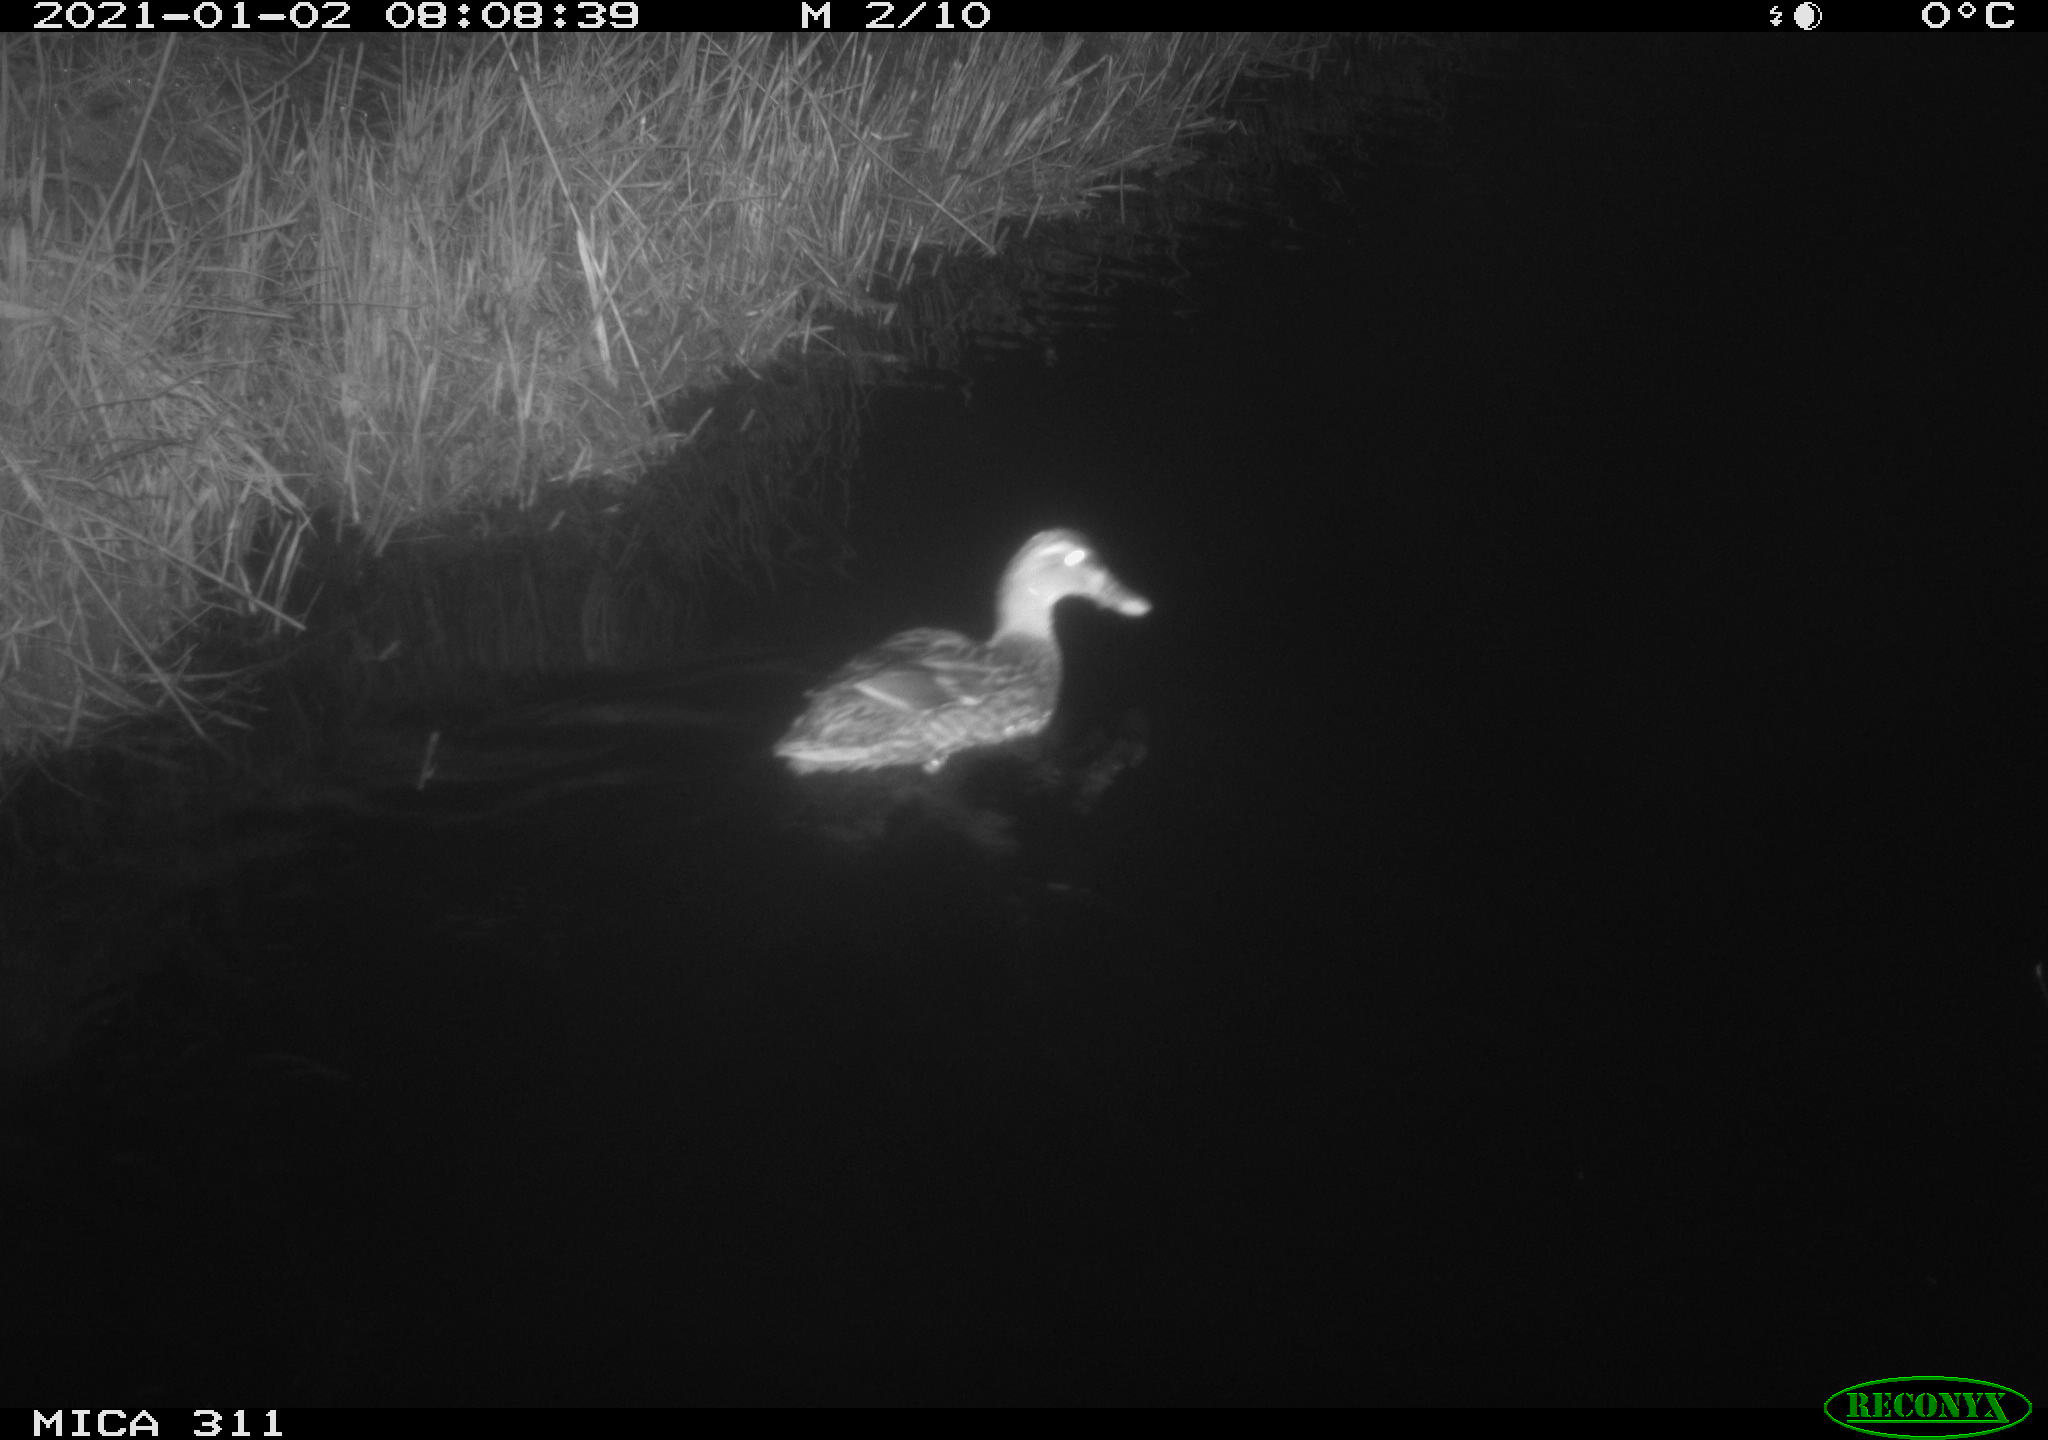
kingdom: Animalia
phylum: Chordata
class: Aves
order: Anseriformes
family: Anatidae
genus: Anas
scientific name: Anas platyrhynchos
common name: Mallard
